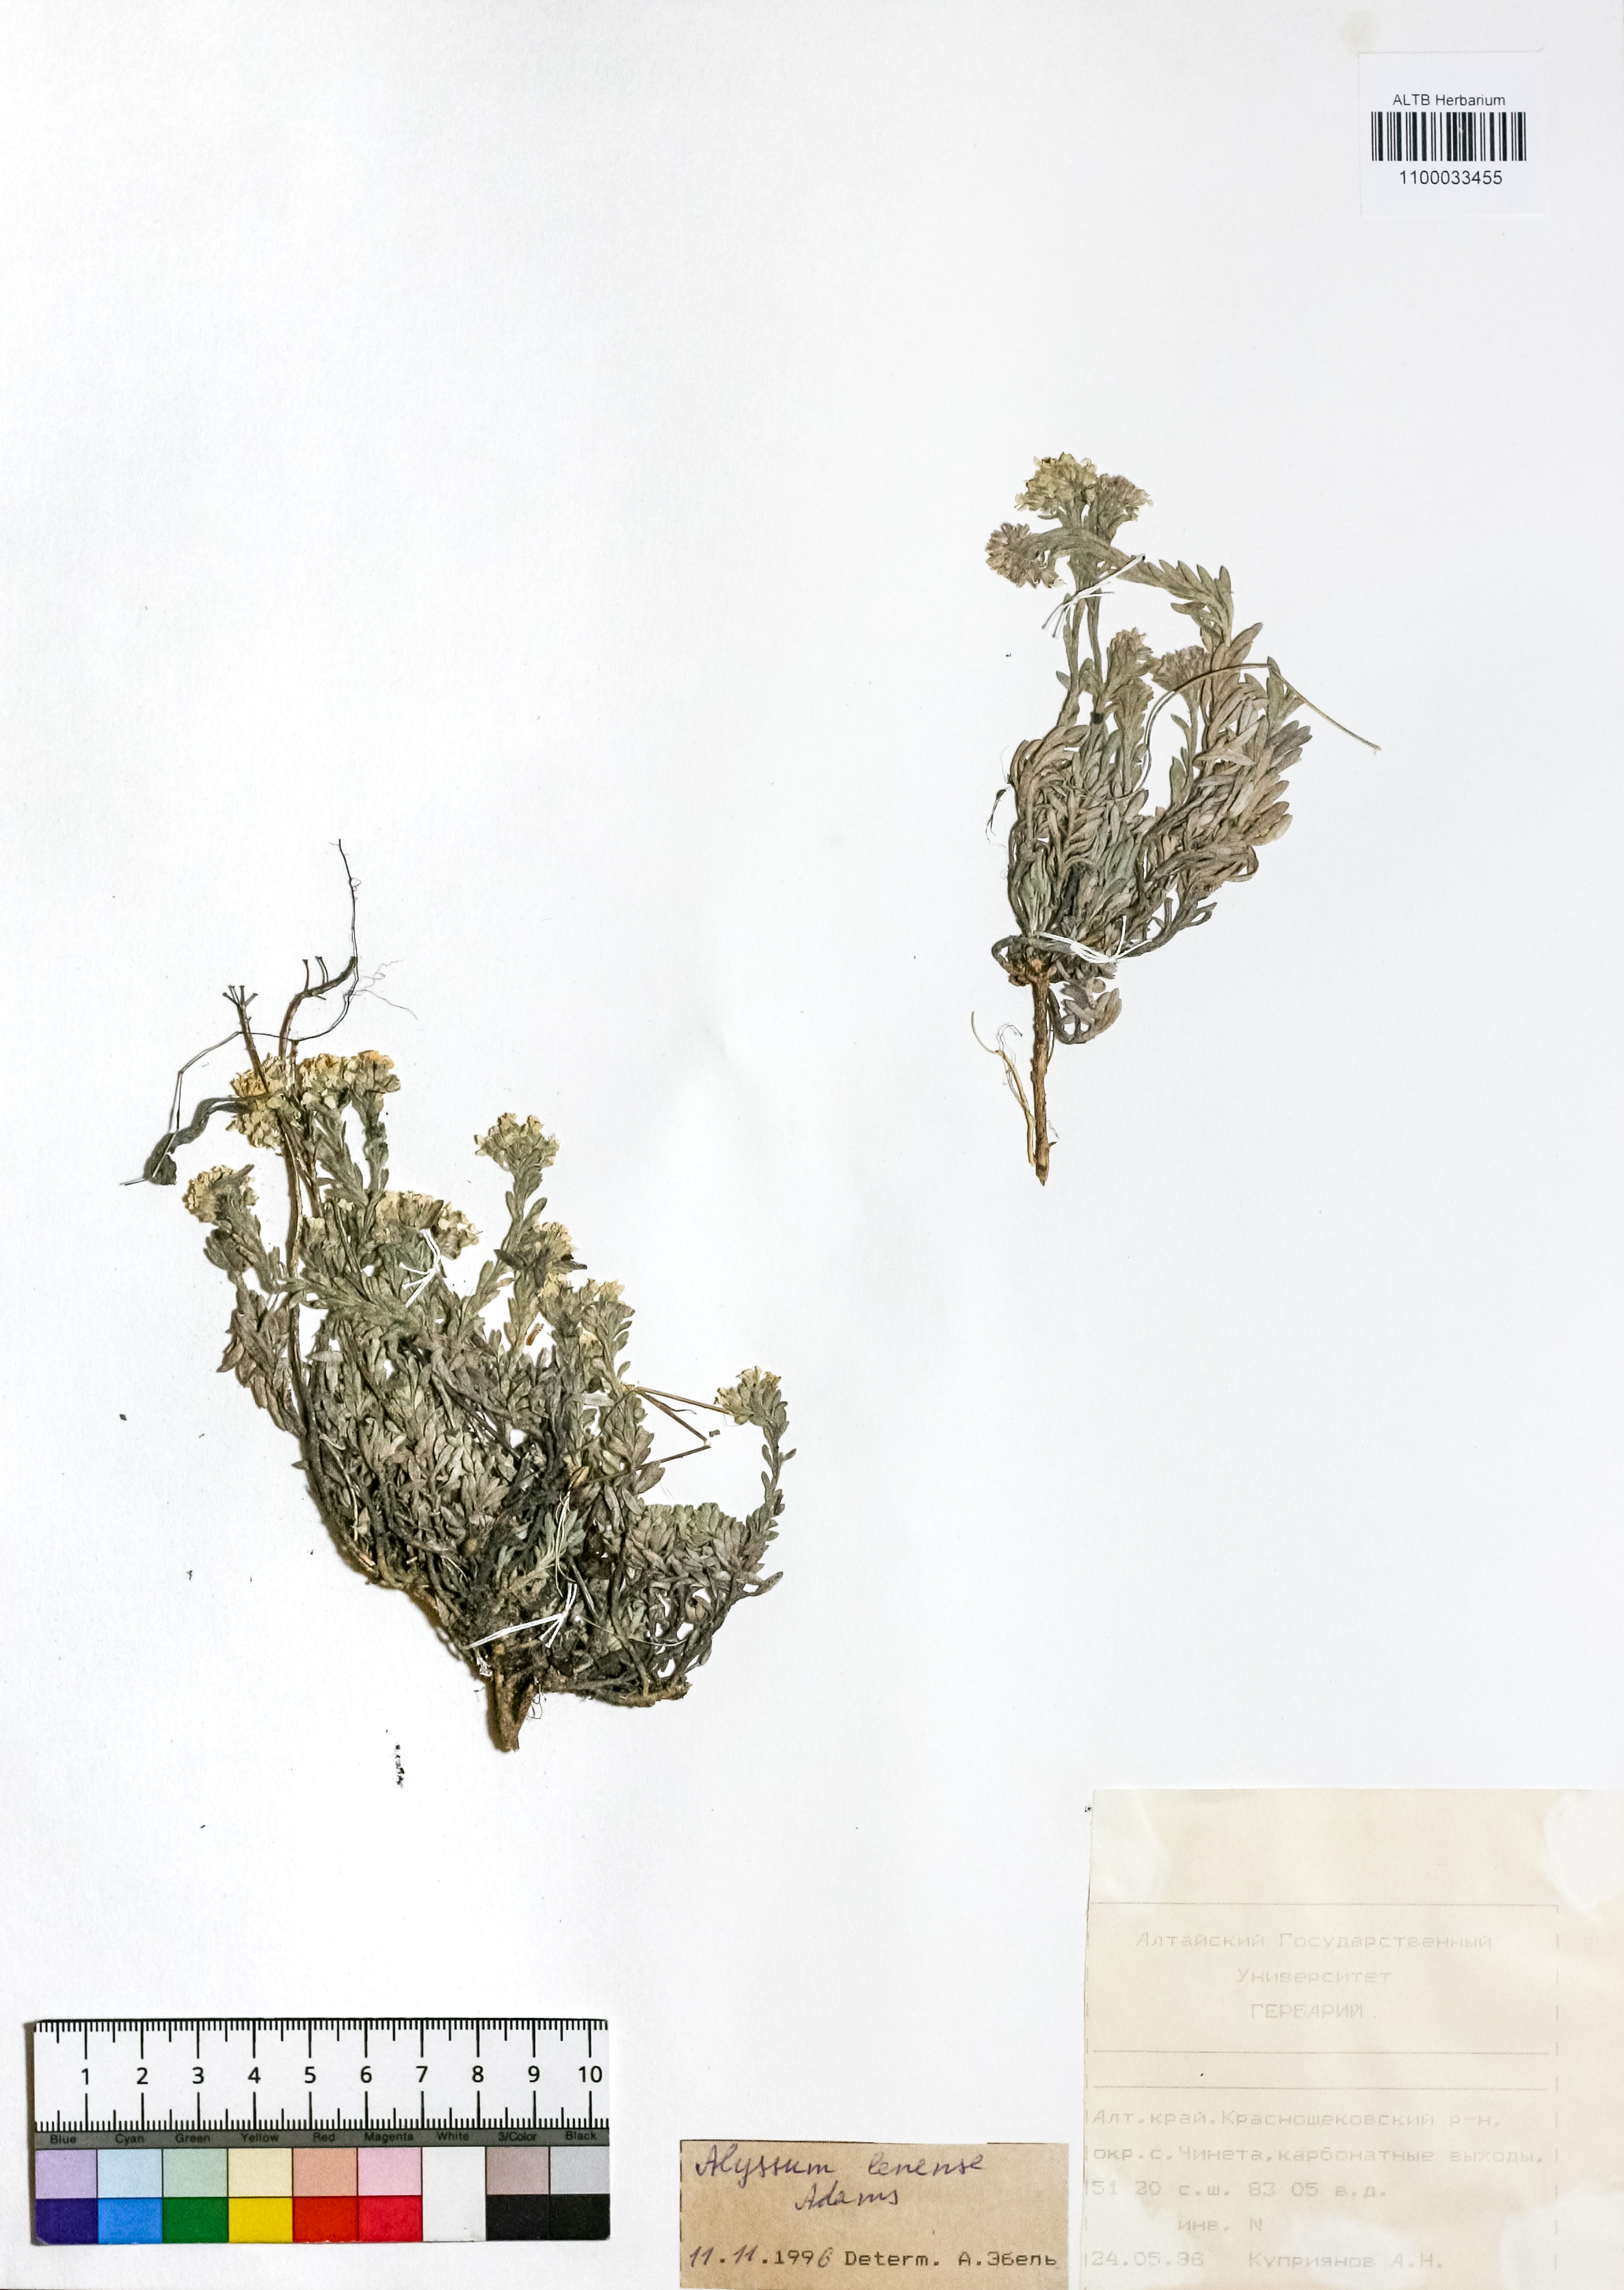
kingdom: Plantae
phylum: Tracheophyta
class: Magnoliopsida
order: Brassicales
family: Brassicaceae
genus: Alyssum
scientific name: Alyssum lenense
